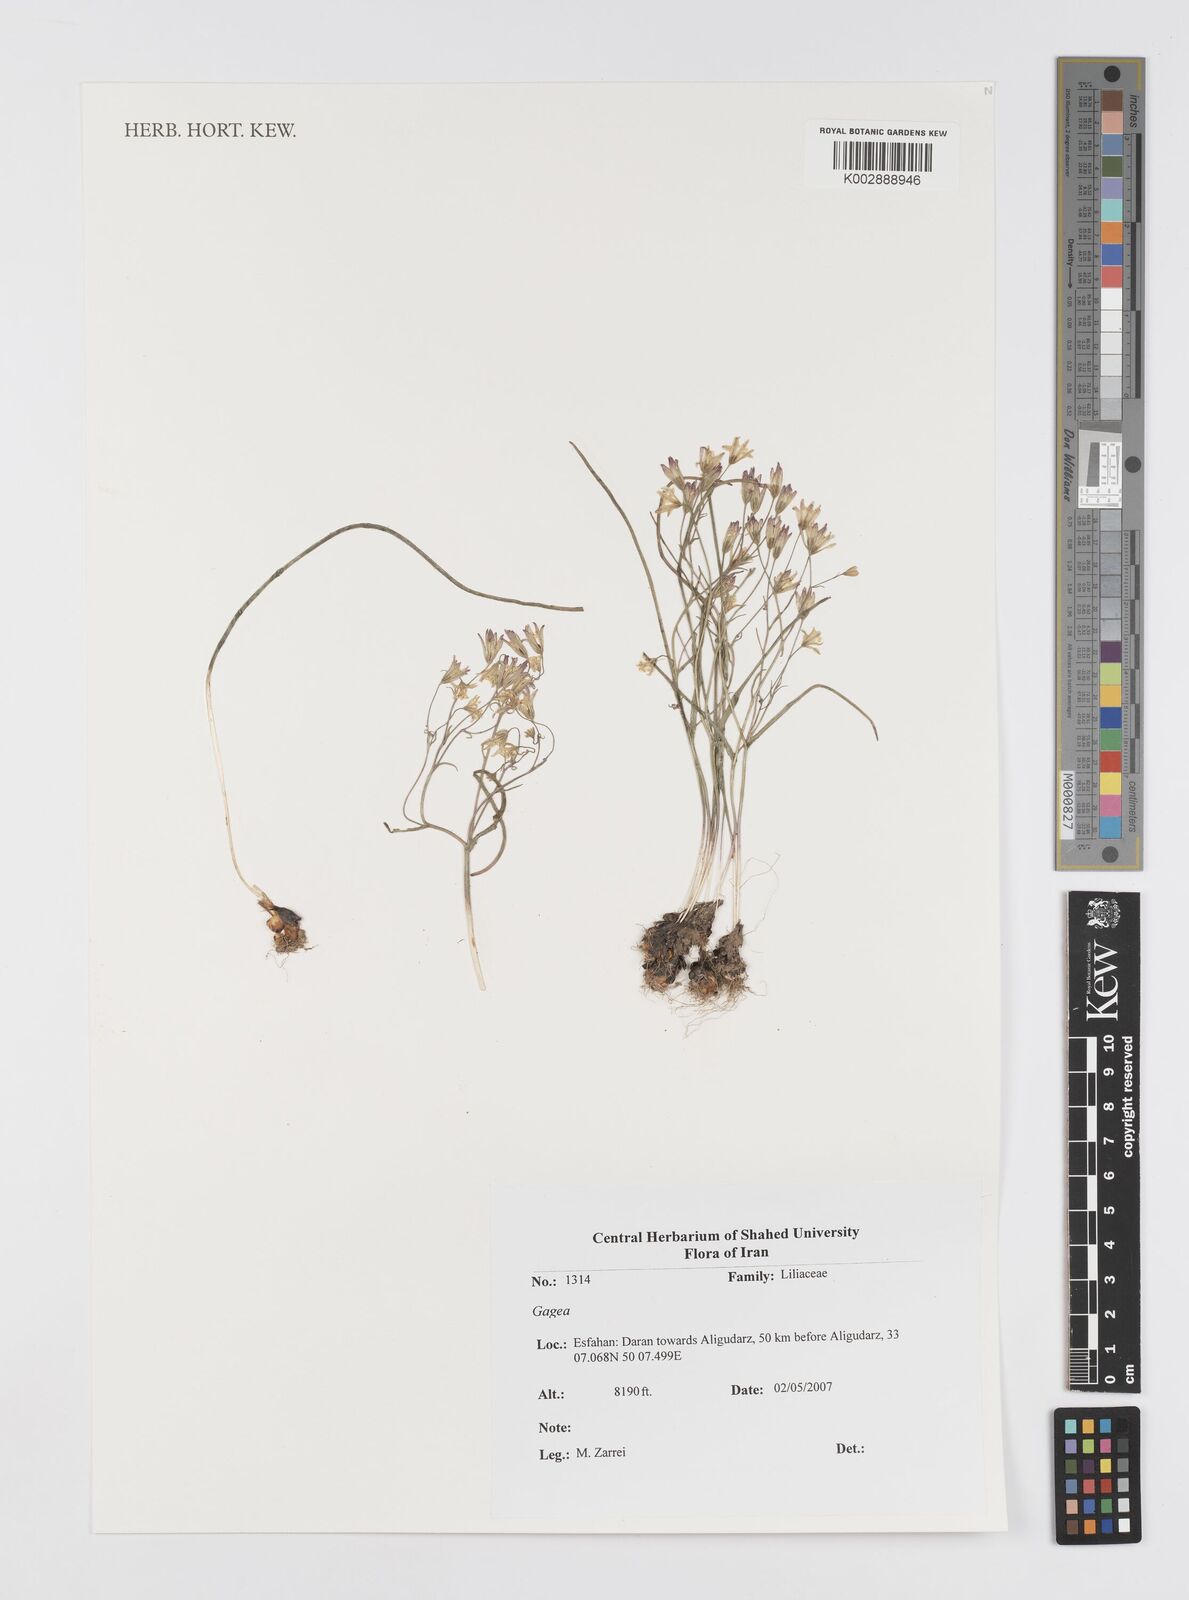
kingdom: Plantae
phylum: Tracheophyta
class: Liliopsida
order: Liliales
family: Liliaceae
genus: Gagea
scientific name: Gagea
